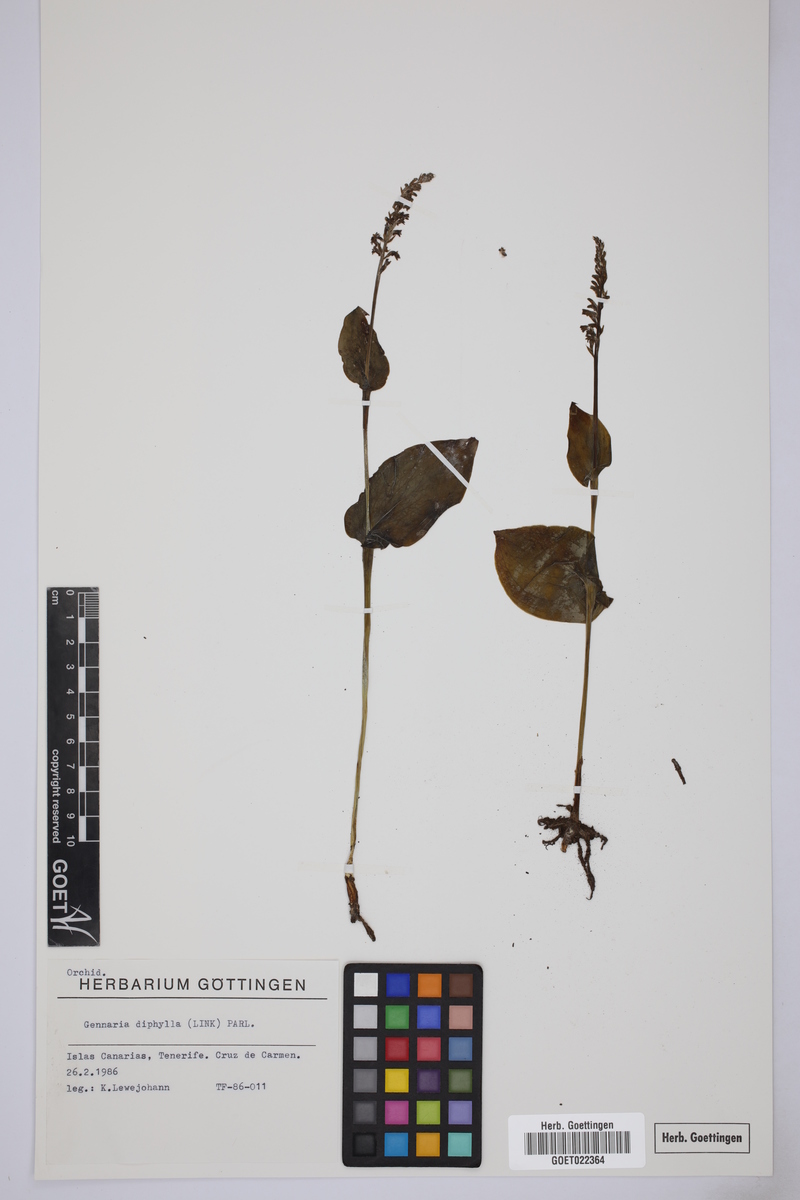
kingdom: Plantae
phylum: Tracheophyta
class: Liliopsida
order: Asparagales
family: Orchidaceae
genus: Gennaria
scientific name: Gennaria diphylla
